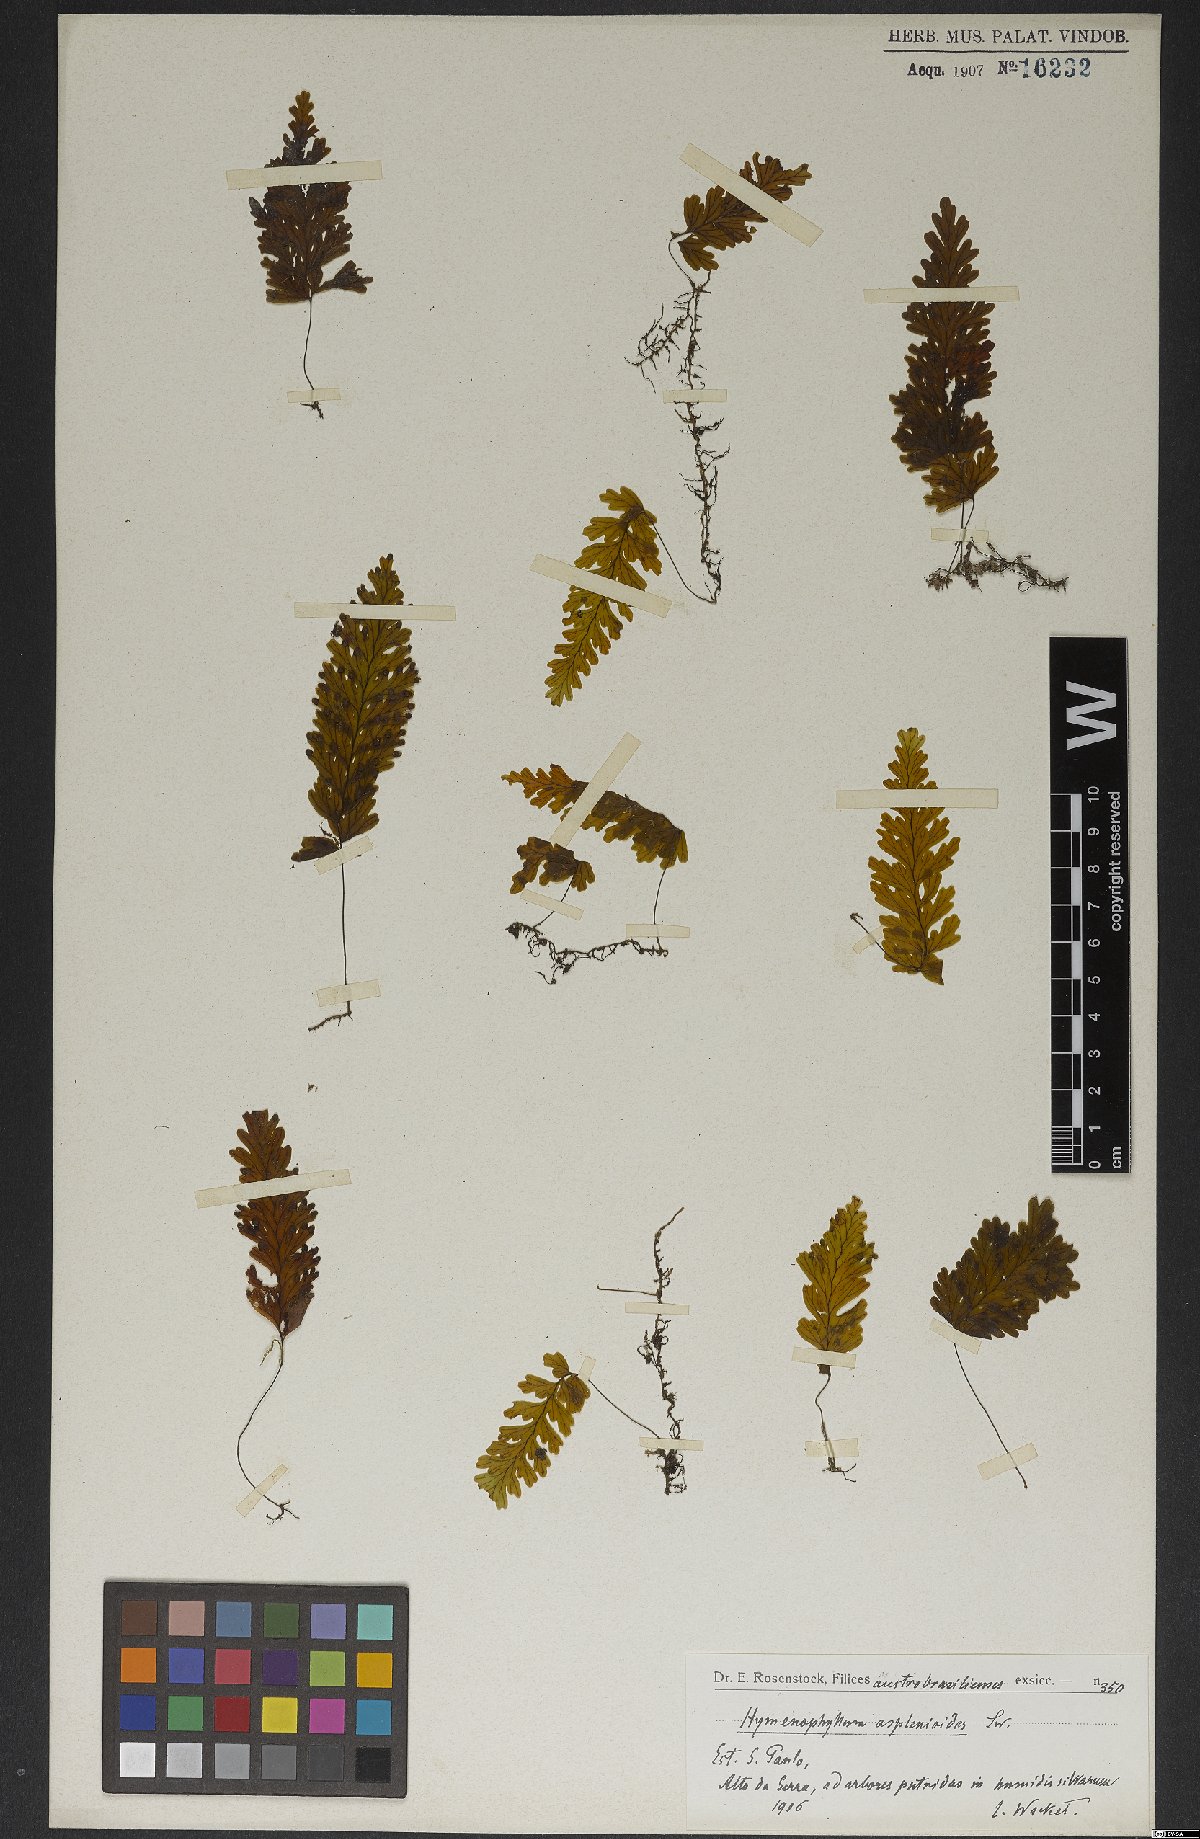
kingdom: Plantae
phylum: Tracheophyta
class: Polypodiopsida
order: Hymenophyllales
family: Hymenophyllaceae
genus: Hymenophyllum
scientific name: Hymenophyllum asplenioides
